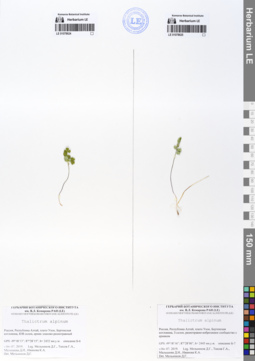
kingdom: Plantae
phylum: Tracheophyta
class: Magnoliopsida
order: Ranunculales
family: Ranunculaceae
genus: Thalictrum
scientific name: Thalictrum alpinum
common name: Alpine meadow-rue
